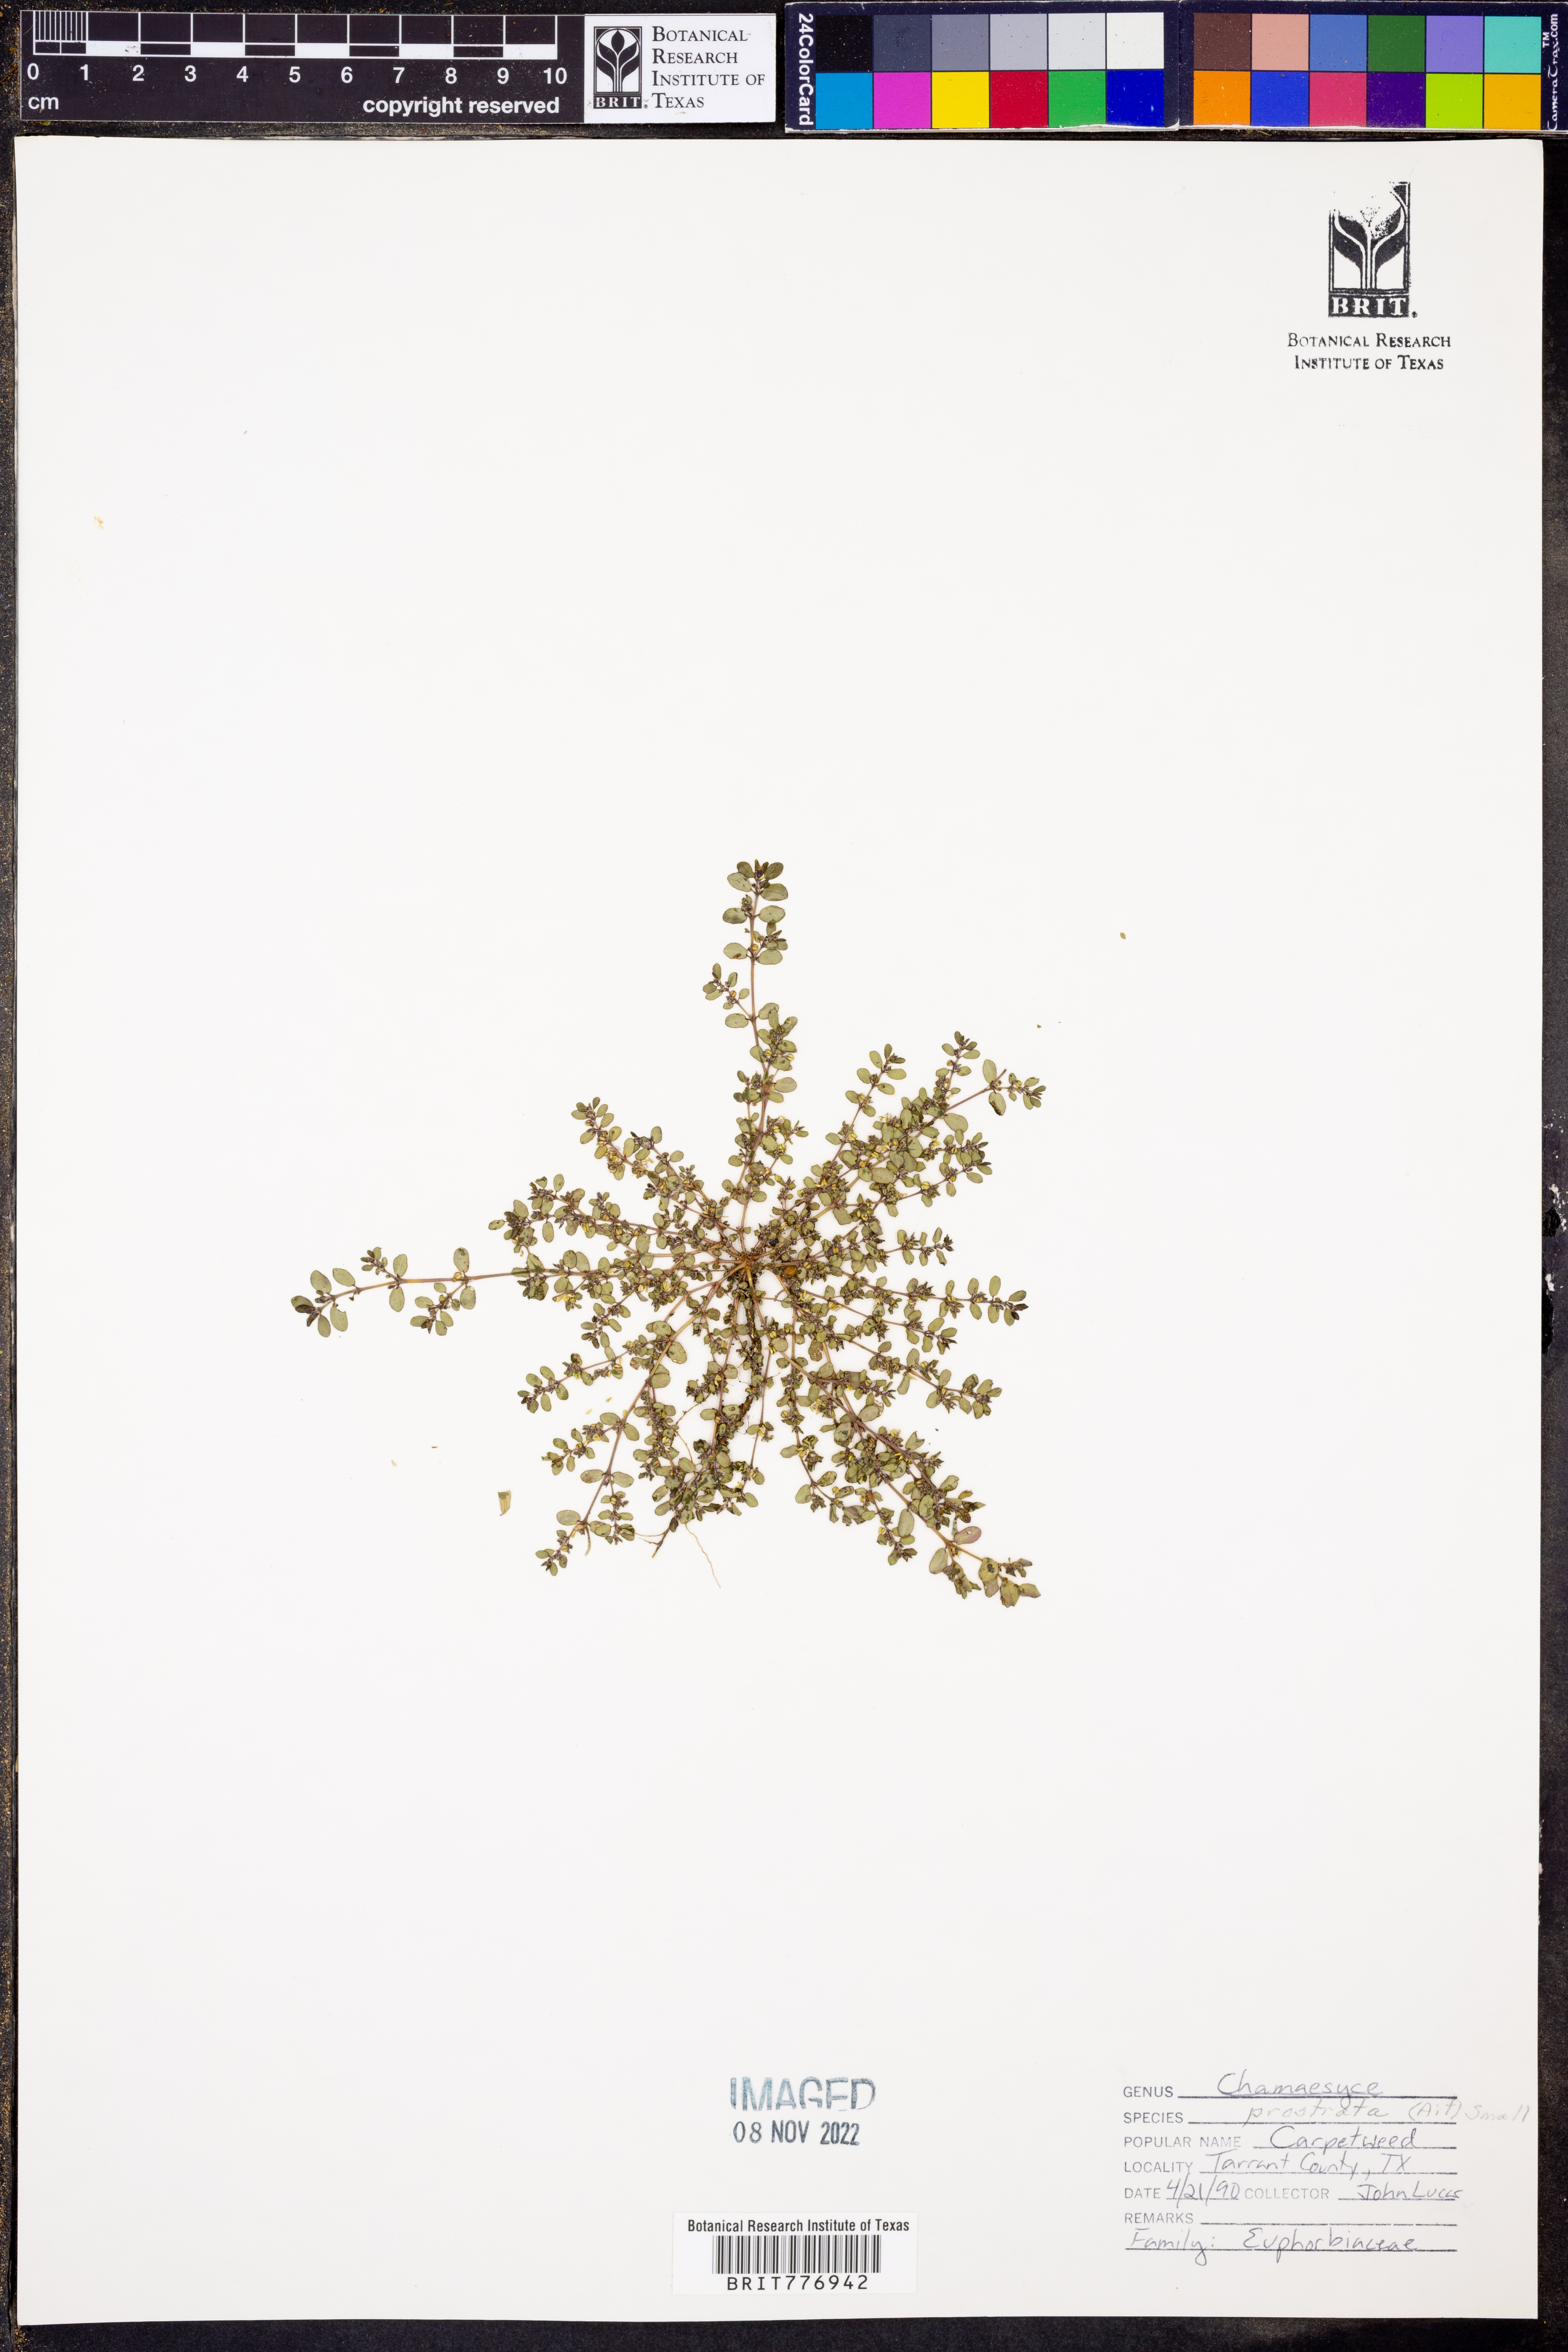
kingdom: Plantae
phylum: Tracheophyta
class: Magnoliopsida
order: Malpighiales
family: Euphorbiaceae
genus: Euphorbia
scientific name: Euphorbia prostrata
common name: Prostrate sandmat
